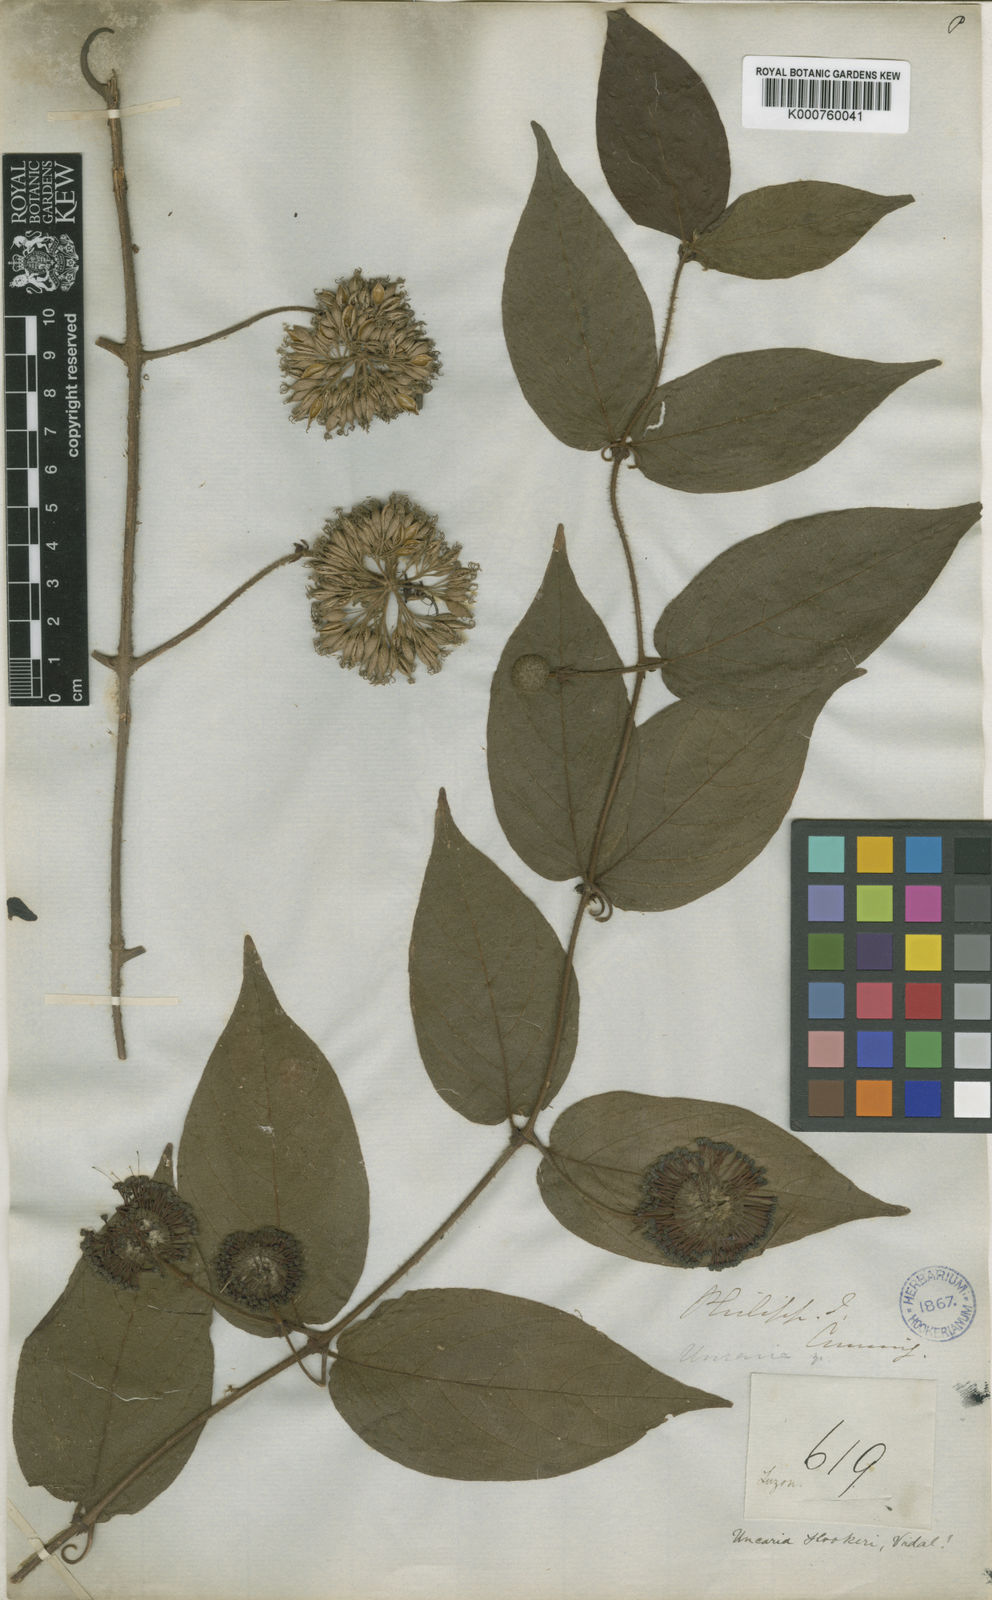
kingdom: Plantae
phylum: Tracheophyta
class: Magnoliopsida
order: Gentianales
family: Rubiaceae
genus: Uncaria
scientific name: Uncaria perrottetii
